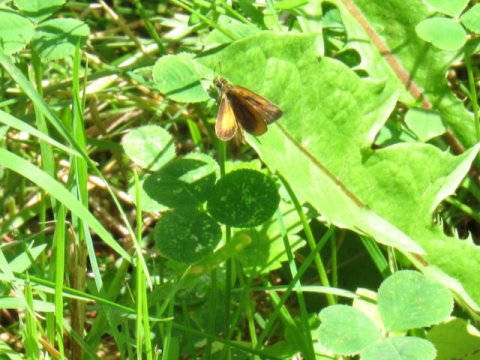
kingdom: Animalia
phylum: Arthropoda
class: Insecta
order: Lepidoptera
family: Hesperiidae
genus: Ancyloxypha
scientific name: Ancyloxypha numitor
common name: Least Skipper
